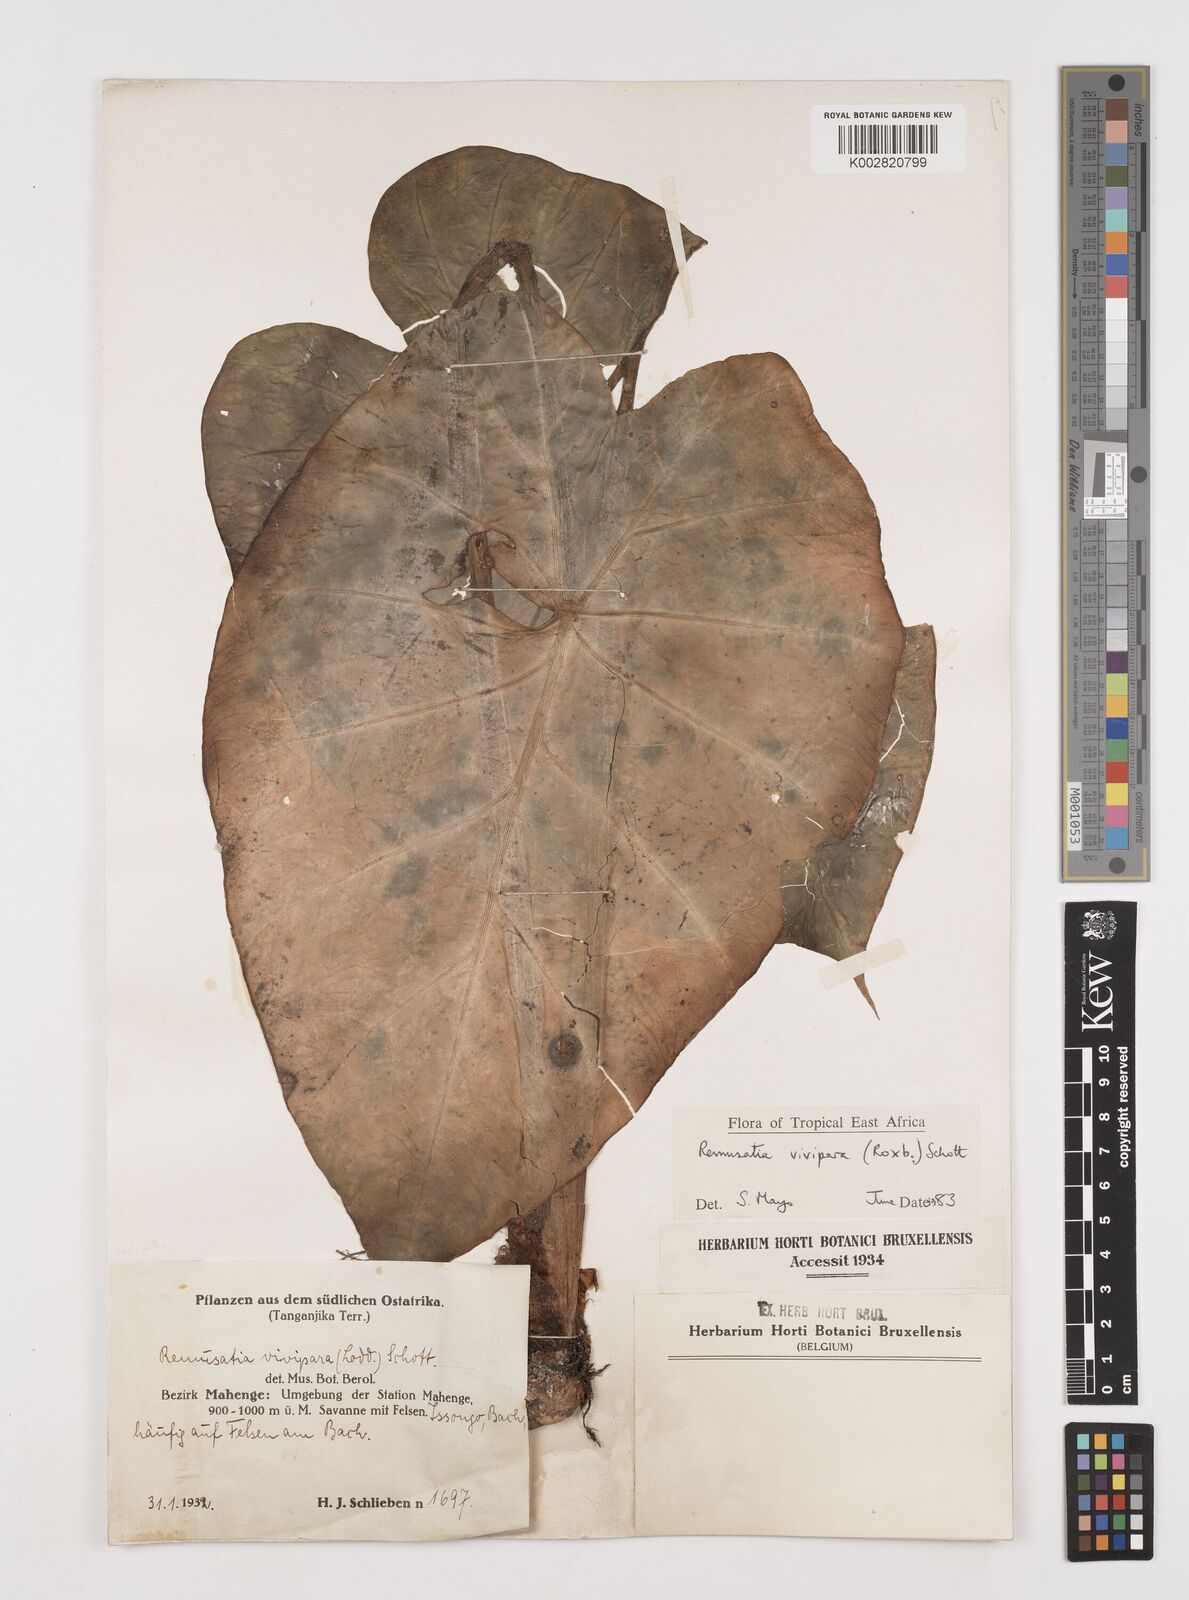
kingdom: Plantae
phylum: Tracheophyta
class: Liliopsida
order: Alismatales
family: Araceae
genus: Remusatia
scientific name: Remusatia vivipara
